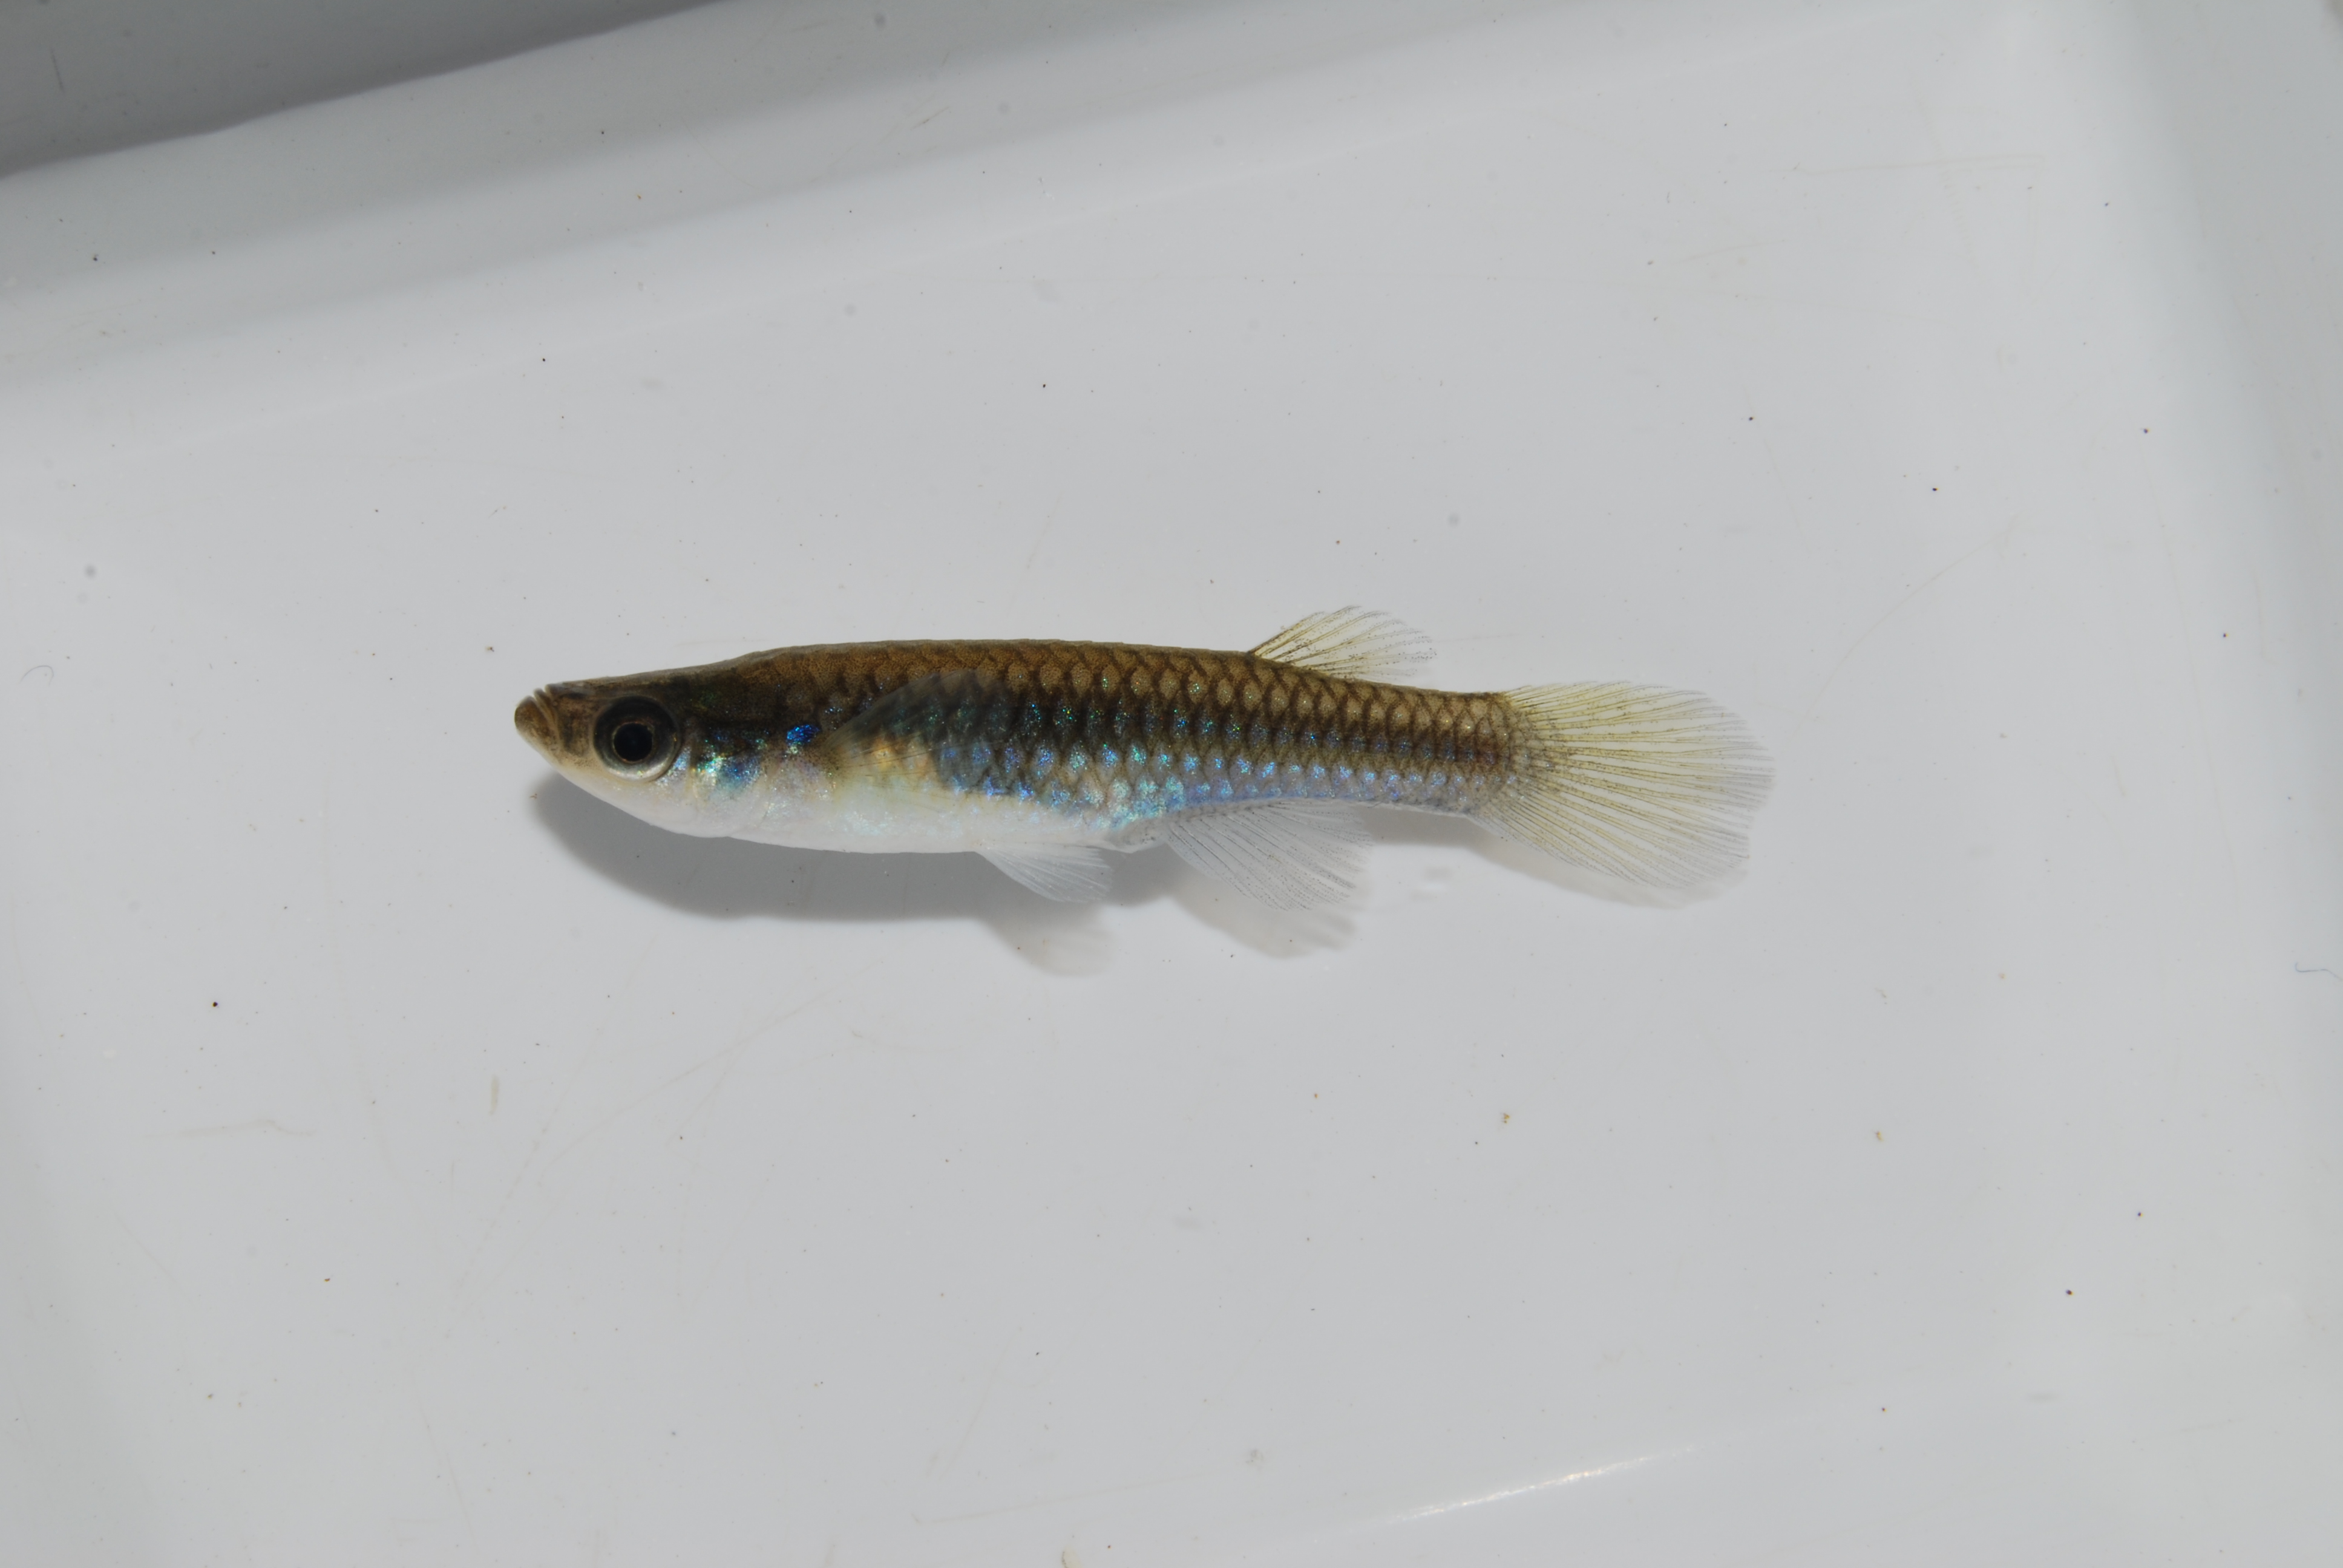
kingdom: Animalia
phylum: Chordata
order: Cyprinodontiformes
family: Poeciliidae
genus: Micropanchax
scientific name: Micropanchax johnstoni
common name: Johnston's topminnow
